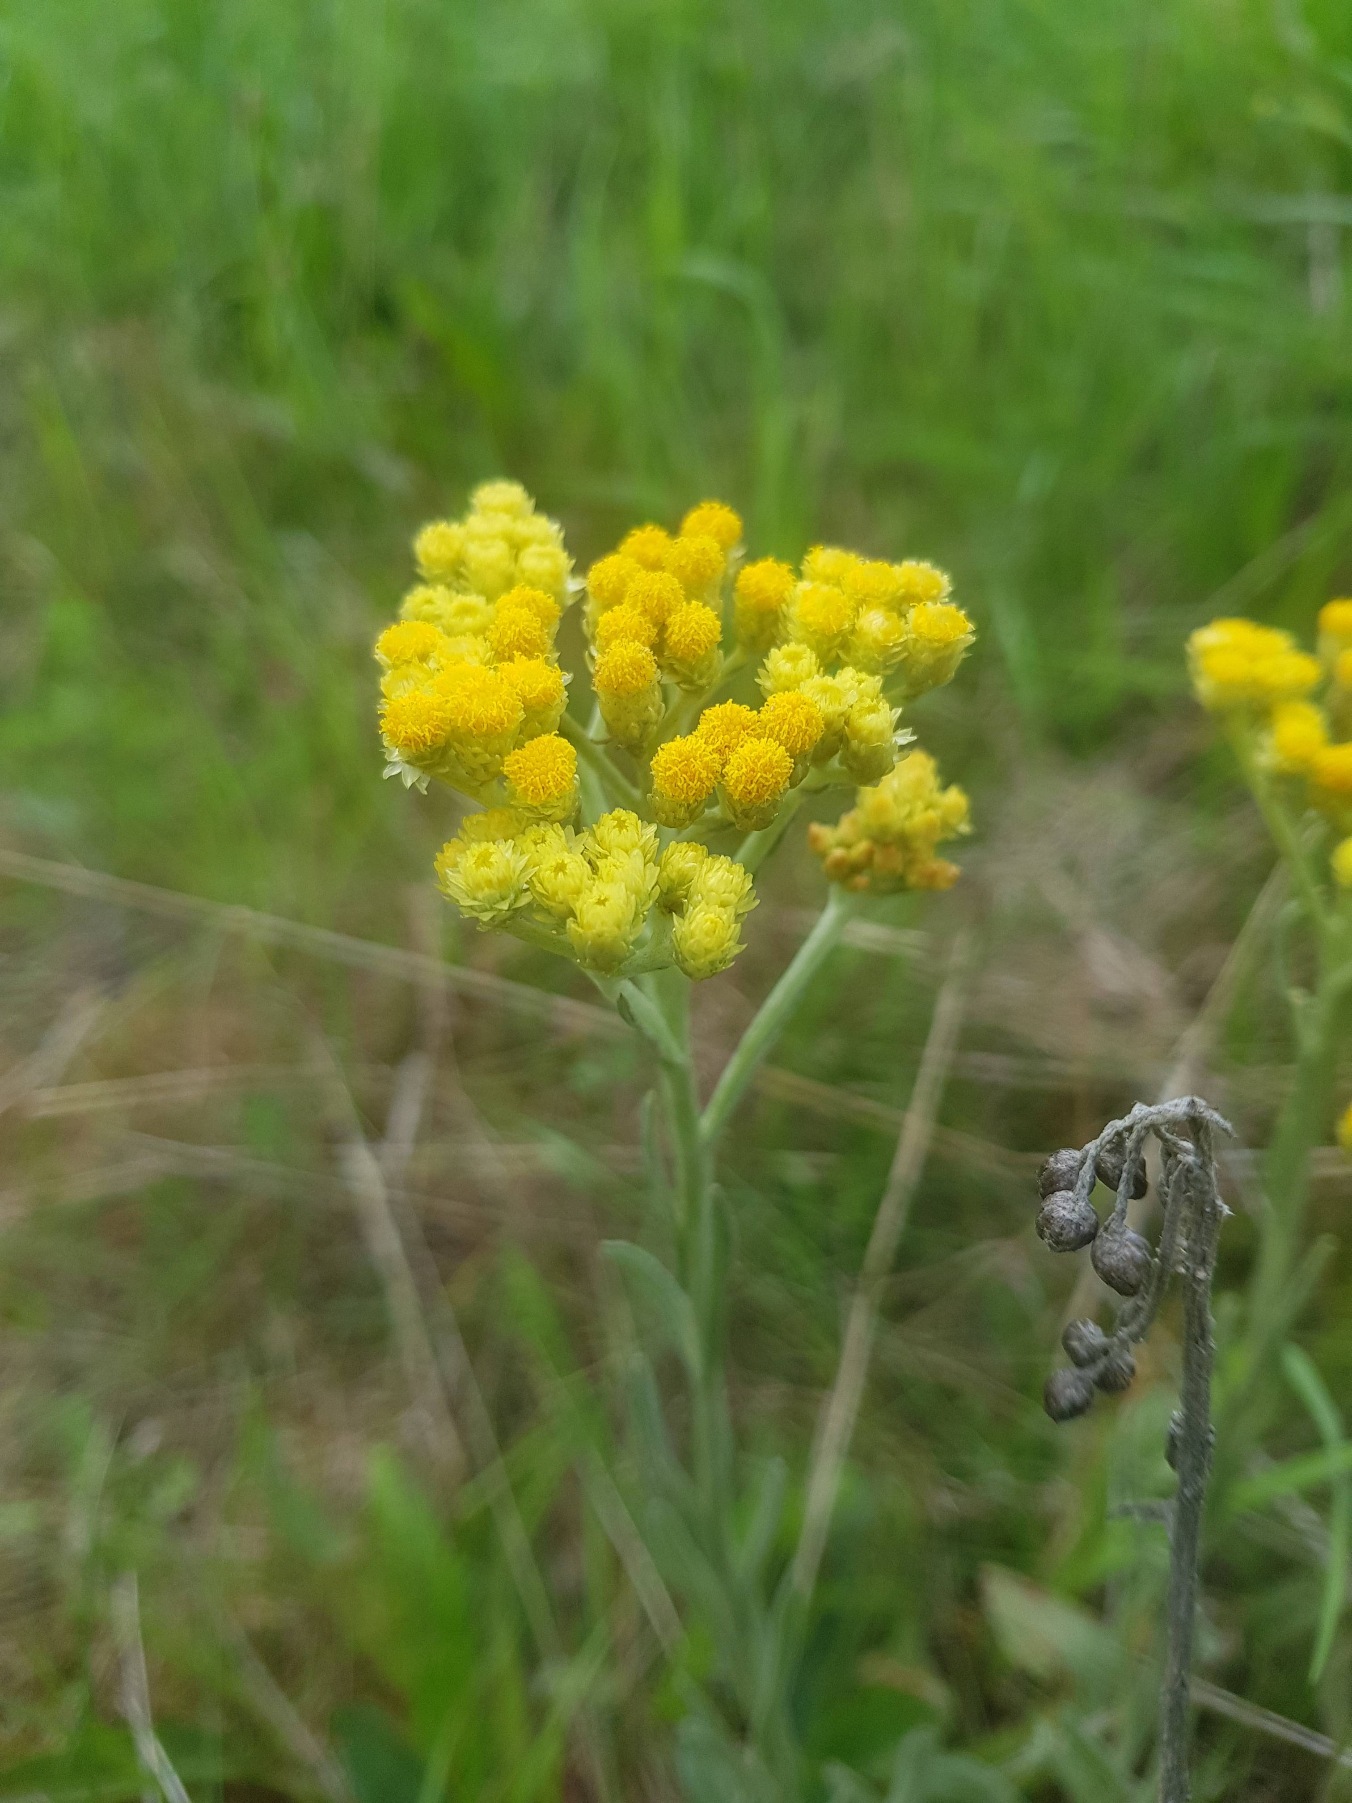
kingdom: Plantae
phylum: Tracheophyta
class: Magnoliopsida
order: Asterales
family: Asteraceae
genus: Helichrysum
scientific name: Helichrysum arenarium
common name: Gul evighedsblomst
